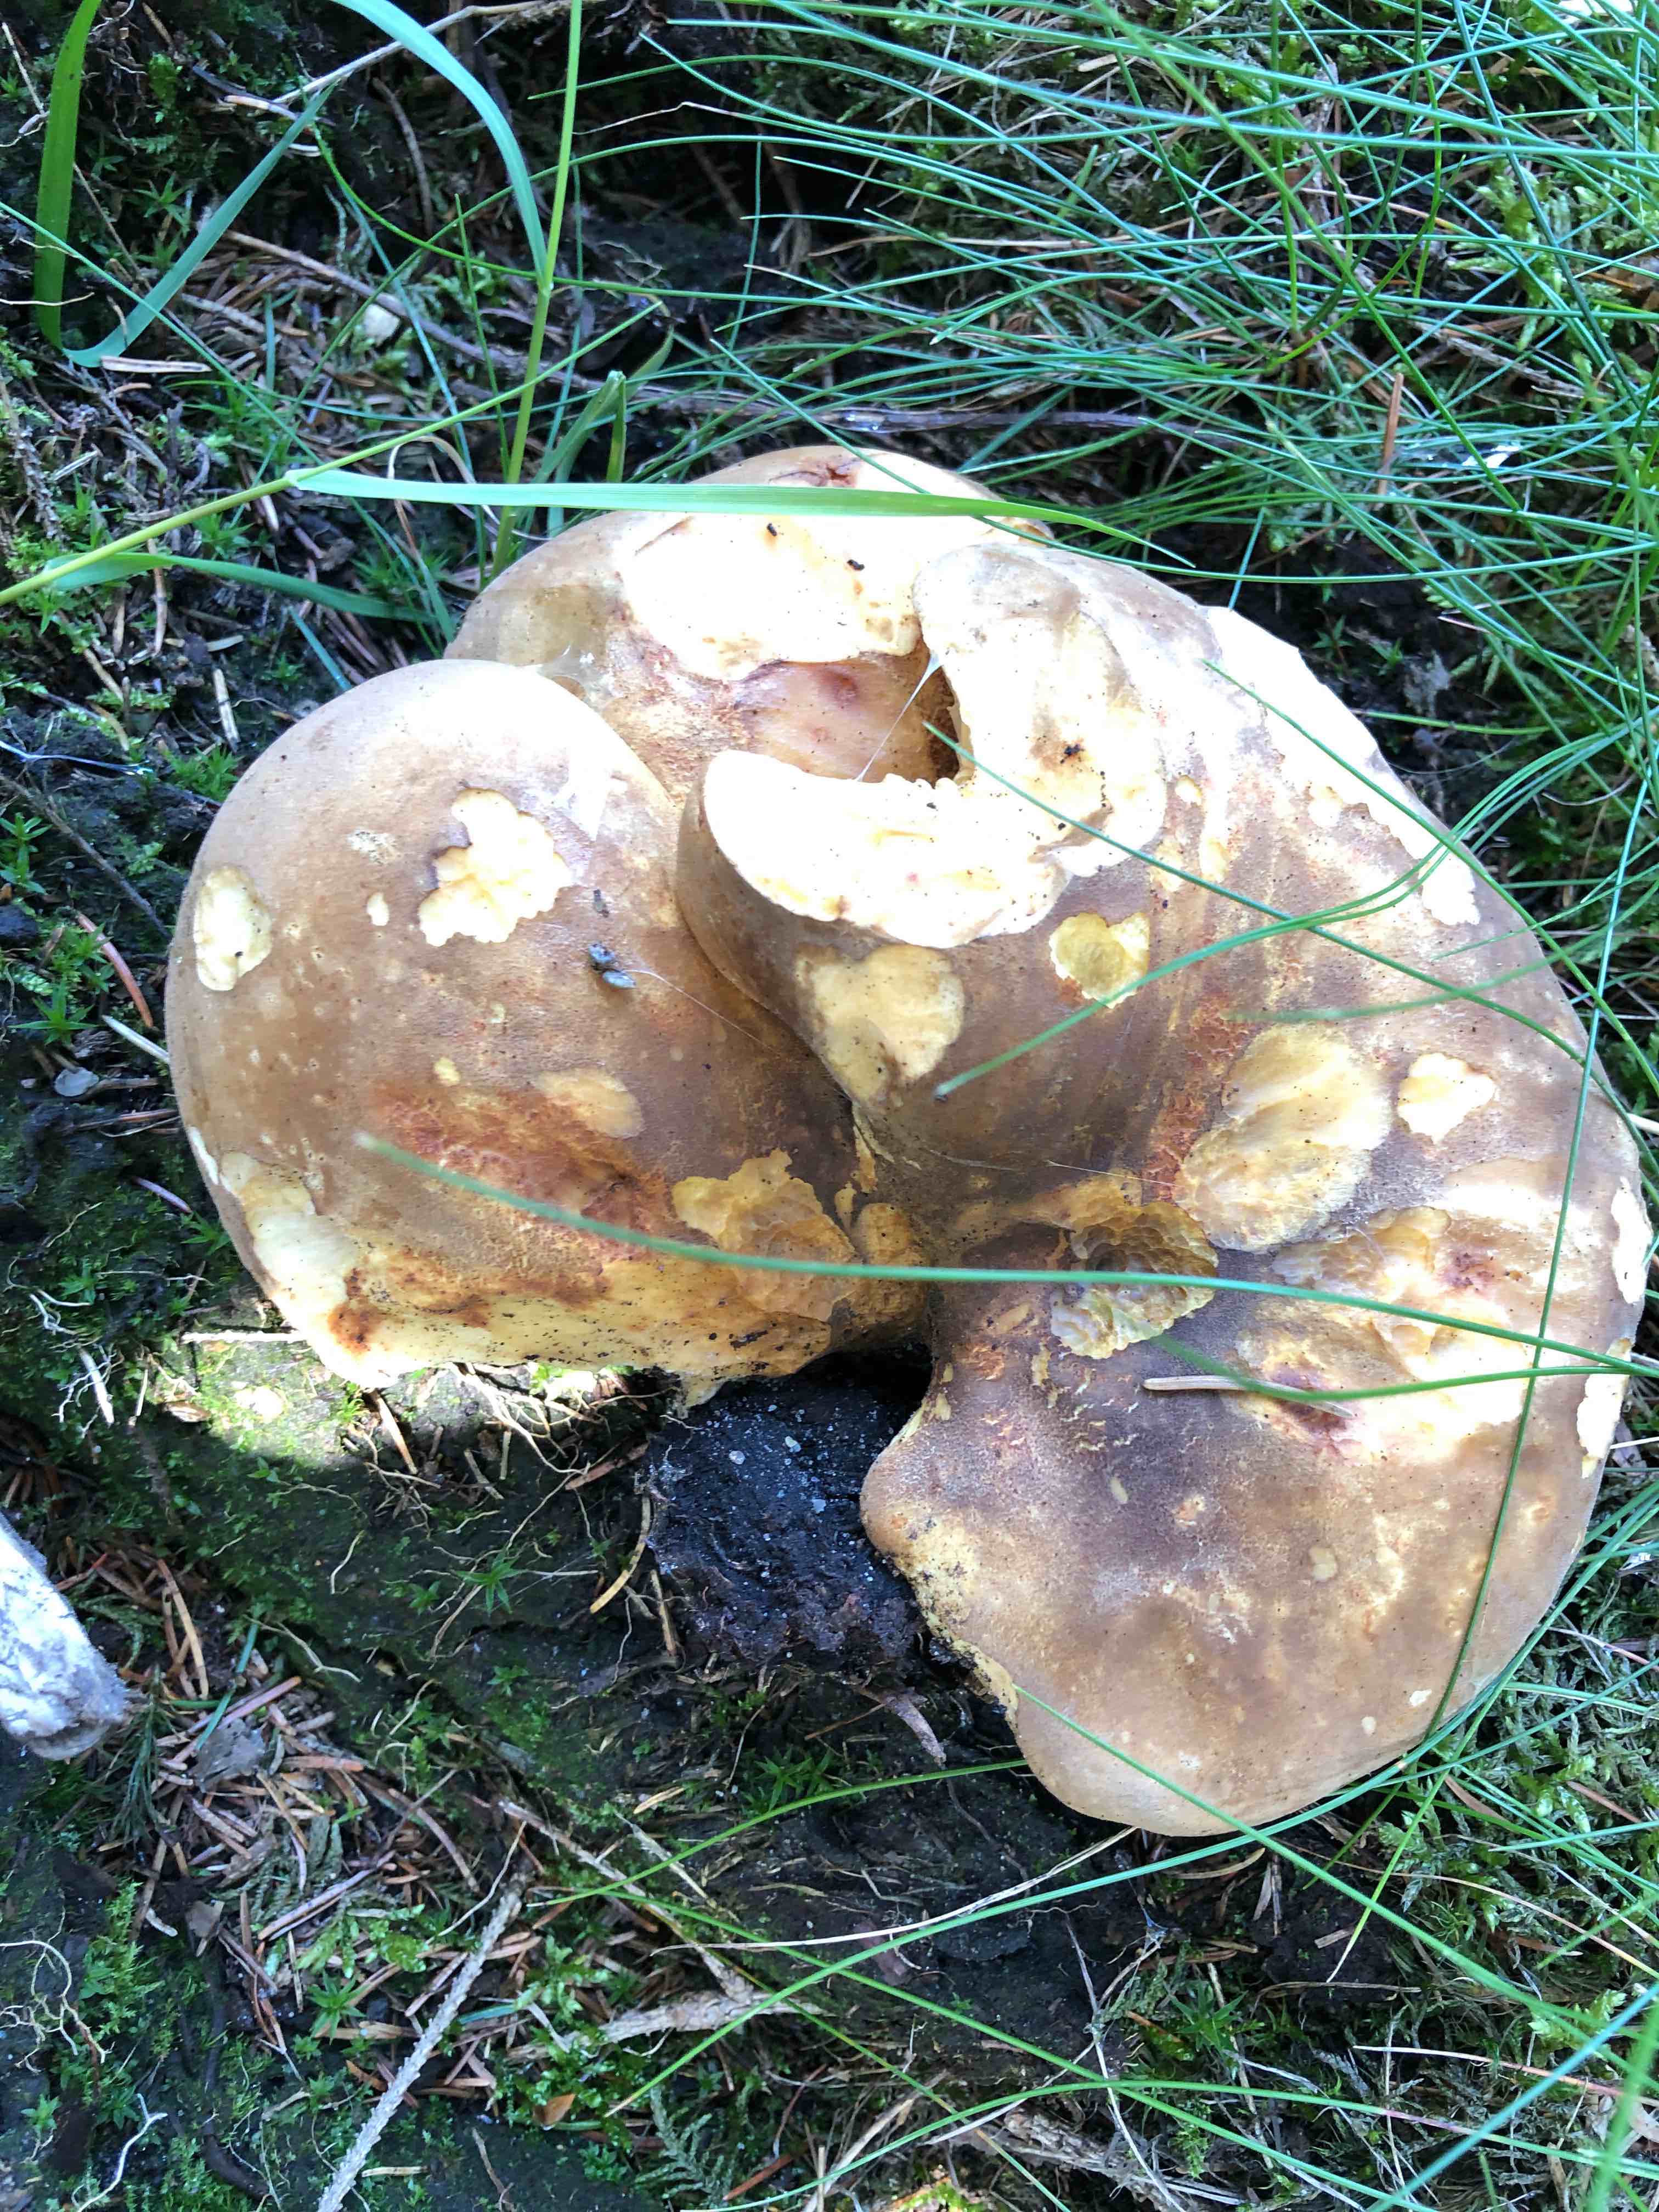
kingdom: Fungi
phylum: Basidiomycota
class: Agaricomycetes
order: Boletales
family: Tapinellaceae
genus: Tapinella
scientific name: Tapinella atrotomentosa
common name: sortfiltet viftesvamp
